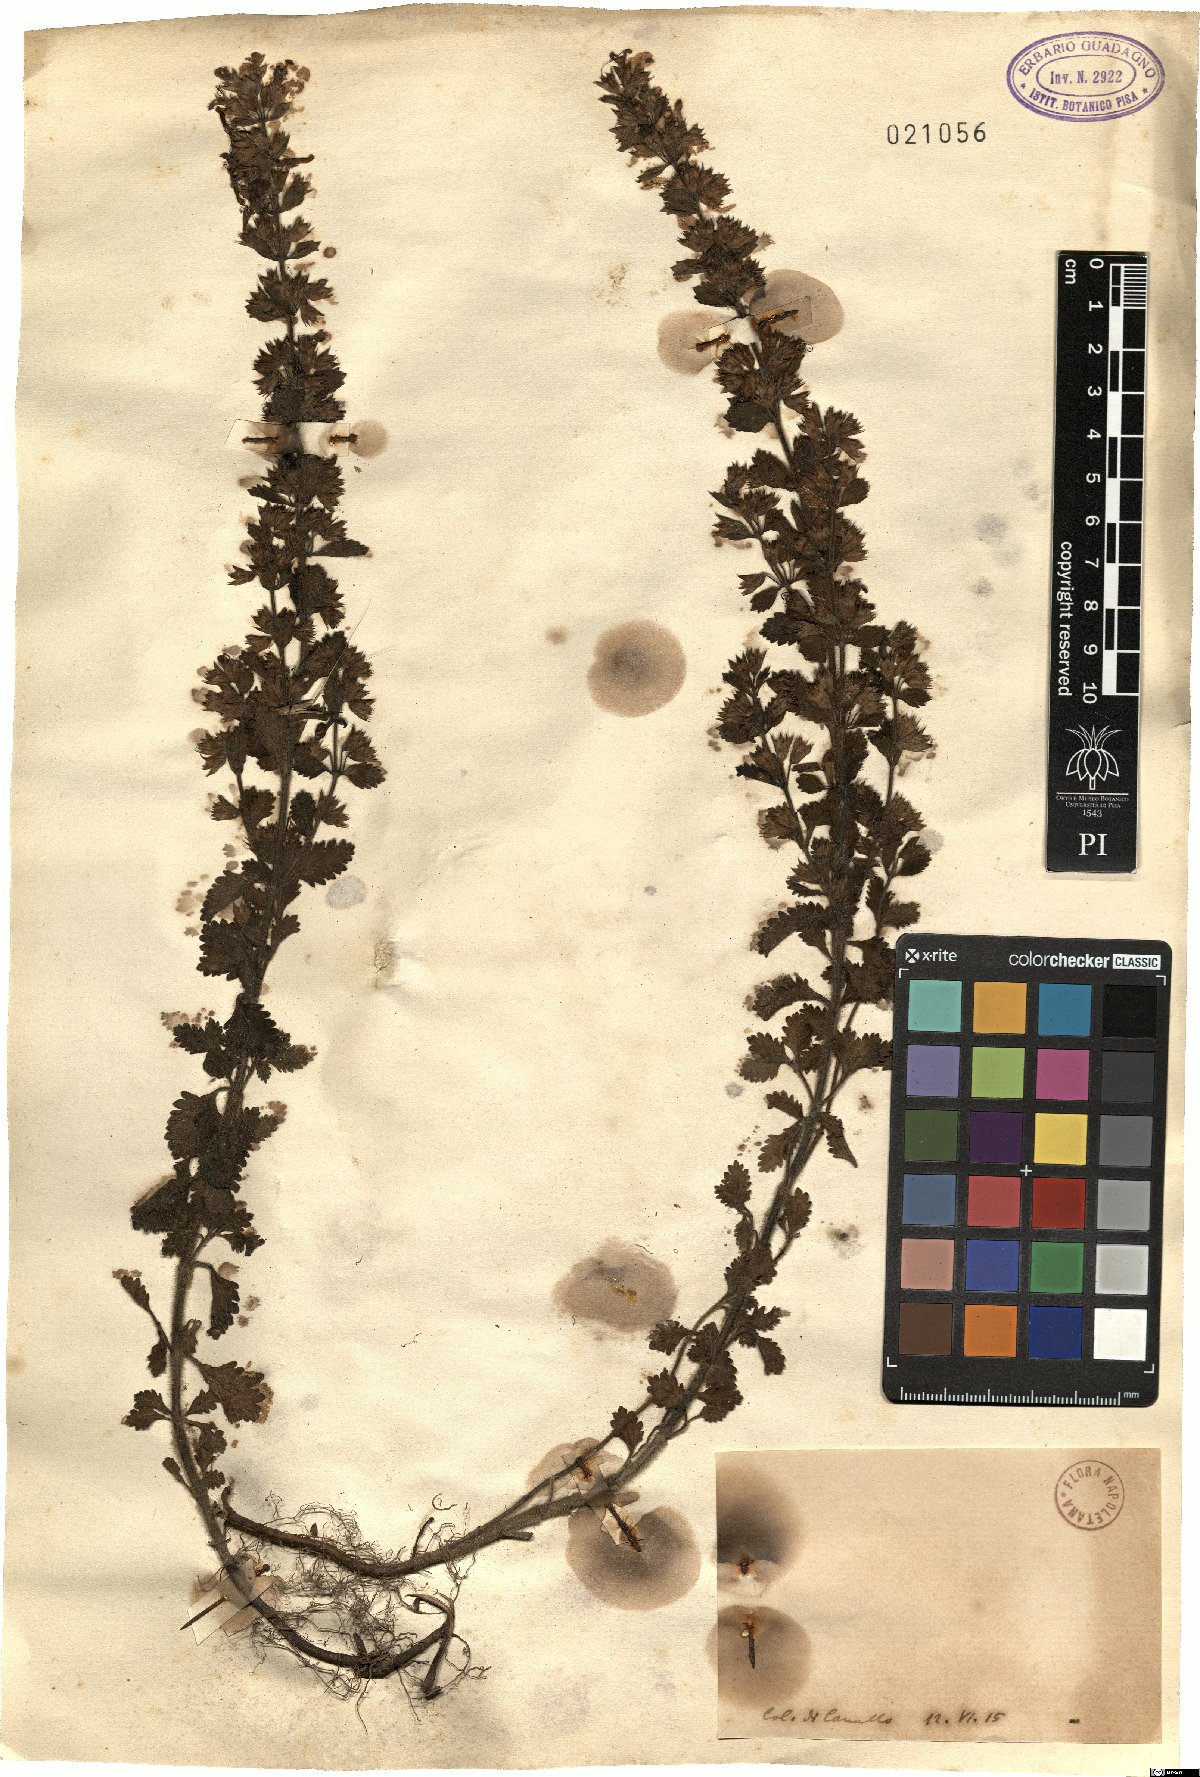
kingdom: Plantae
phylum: Tracheophyta
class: Magnoliopsida
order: Lamiales
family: Lamiaceae
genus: Teucrium
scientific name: Teucrium
